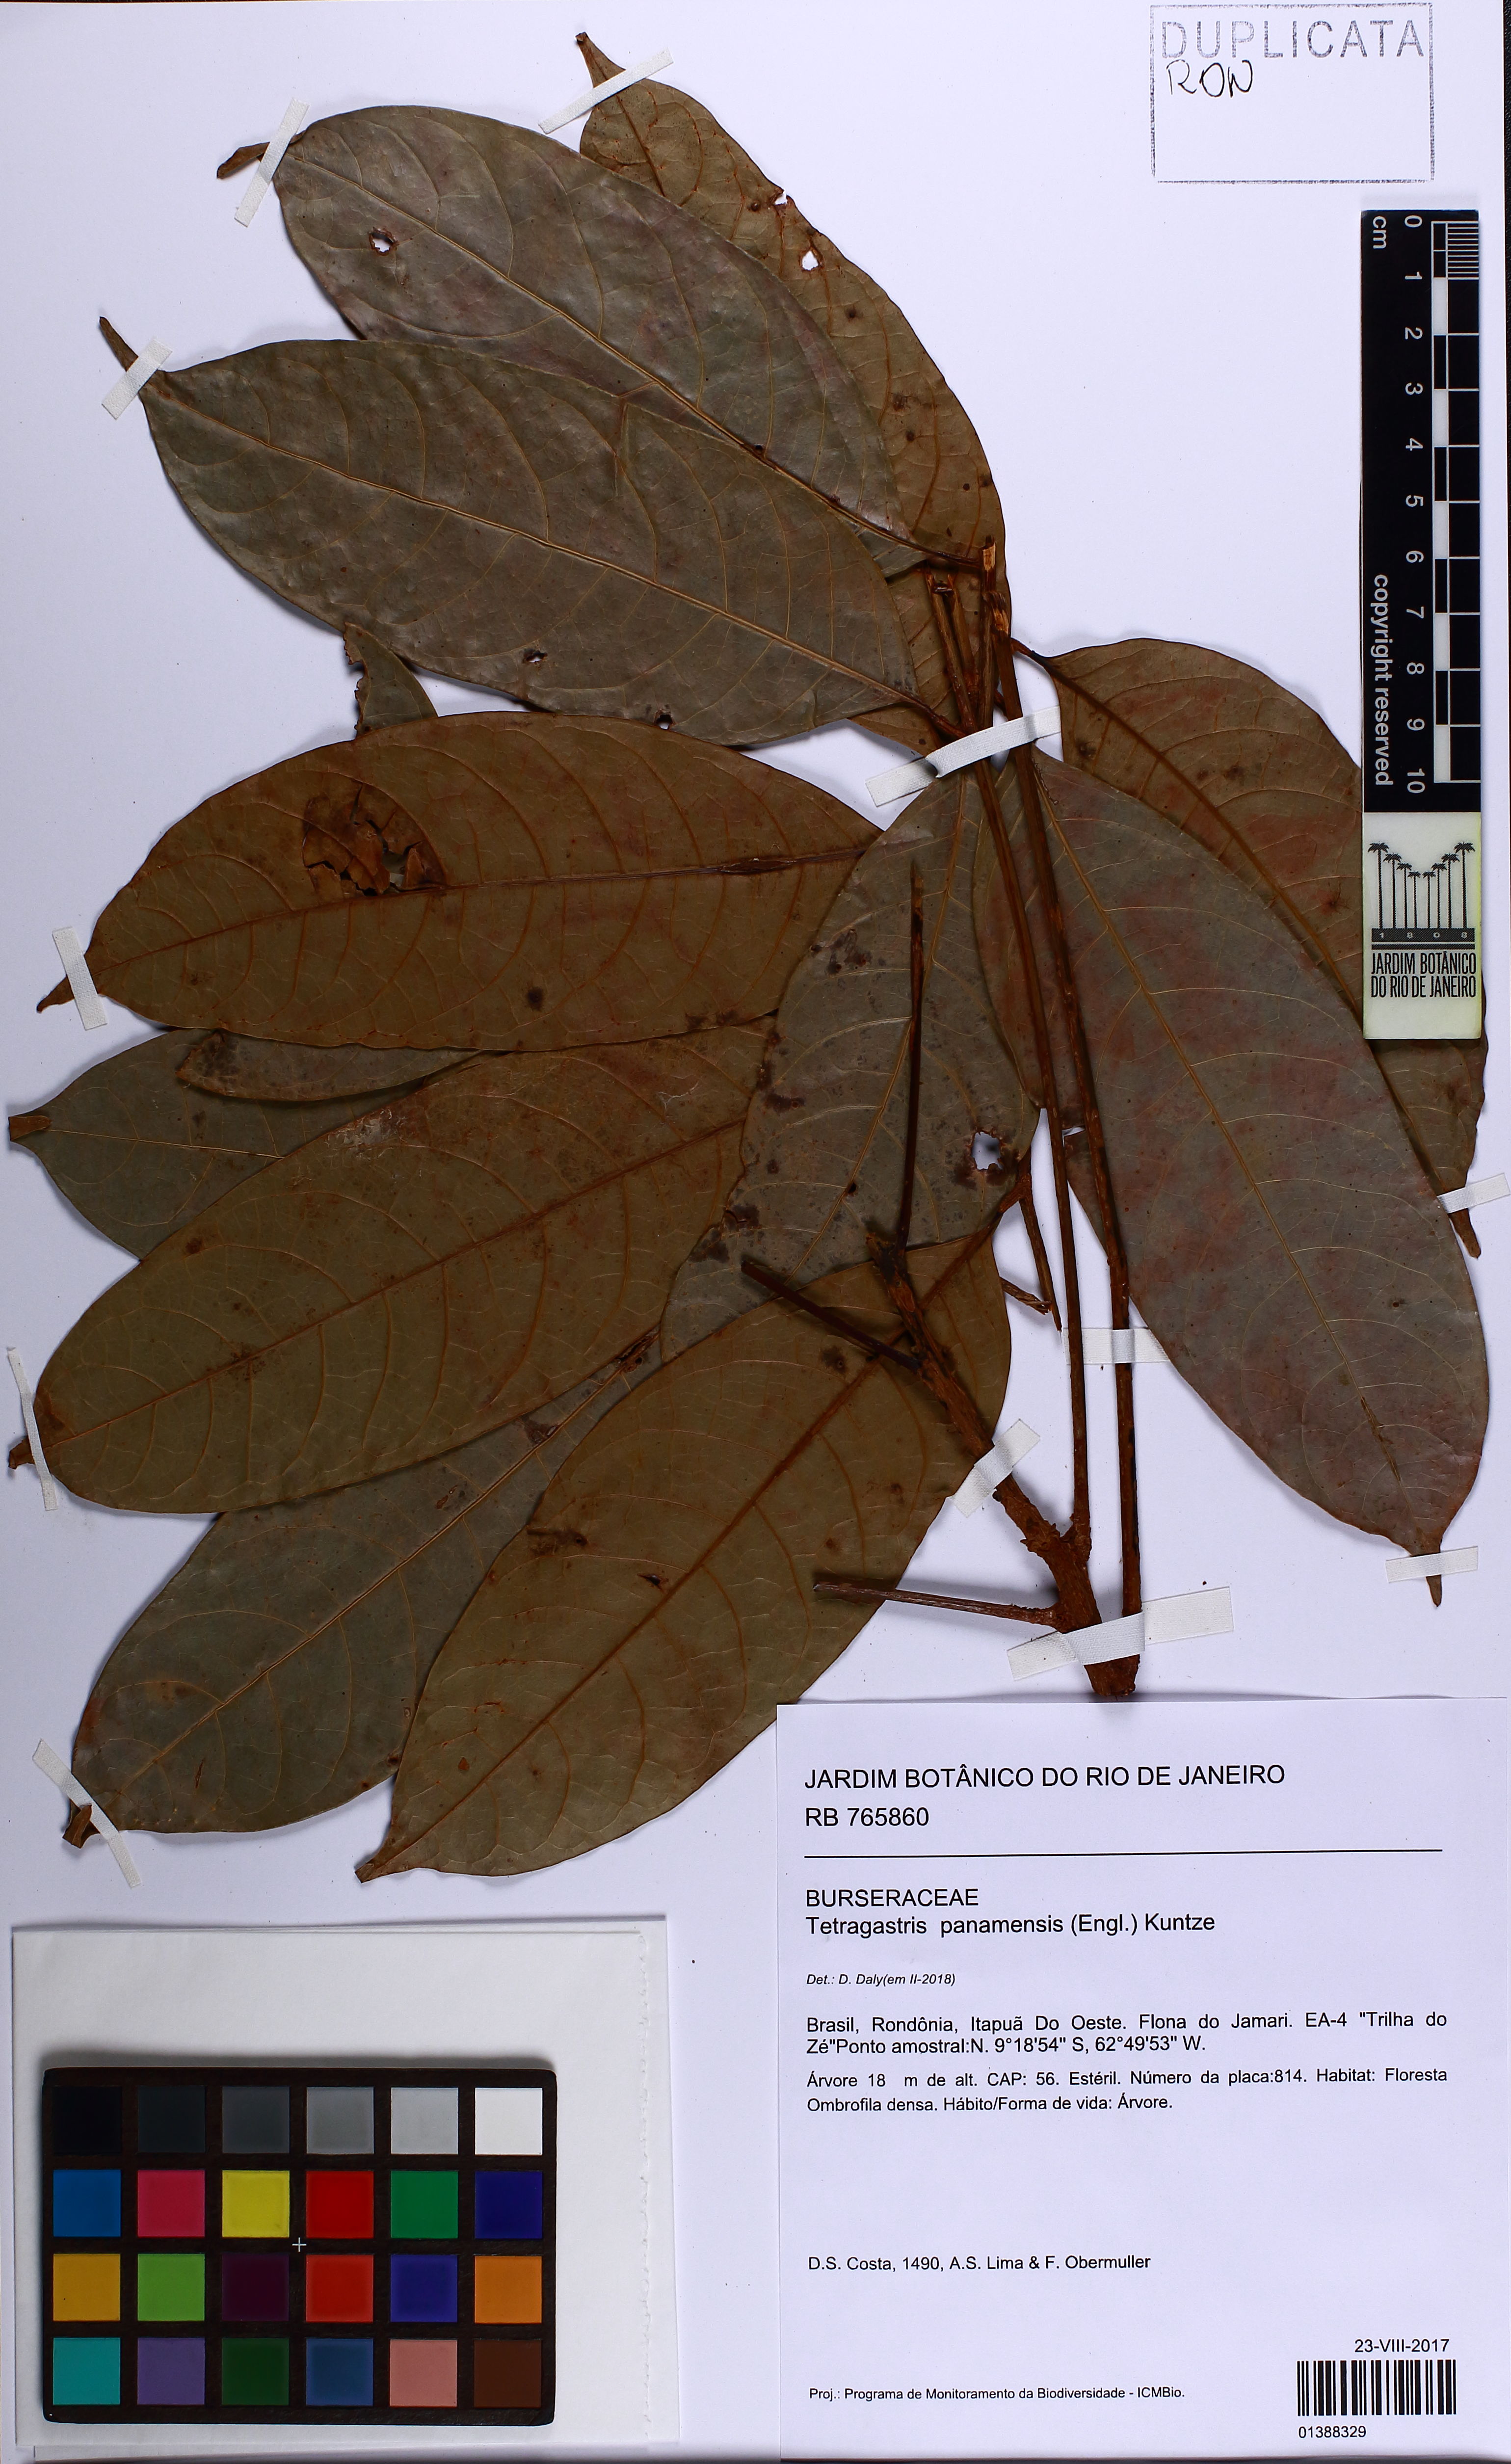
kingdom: Plantae
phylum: Tracheophyta
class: Magnoliopsida
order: Sapindales
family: Burseraceae
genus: Tetragastris
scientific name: Tetragastris panamensis
